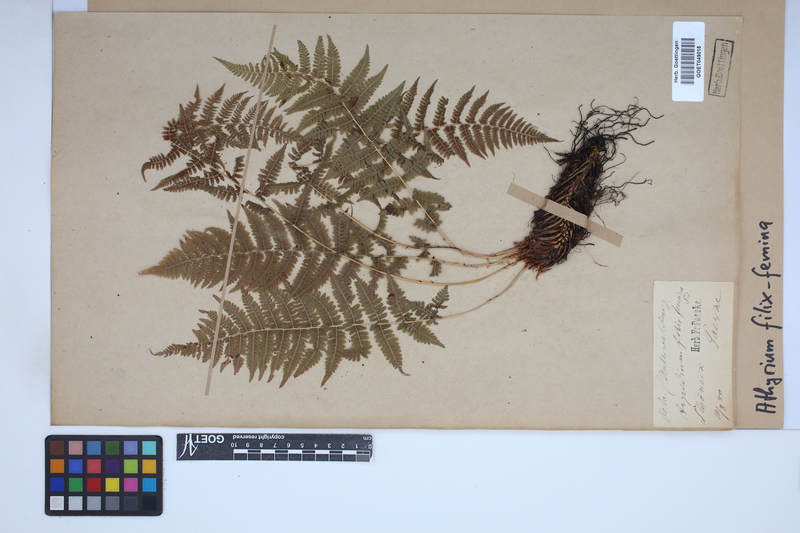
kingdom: Plantae
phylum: Tracheophyta
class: Polypodiopsida
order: Polypodiales
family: Athyriaceae
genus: Athyrium
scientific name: Athyrium filix-femina
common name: Lady fern
